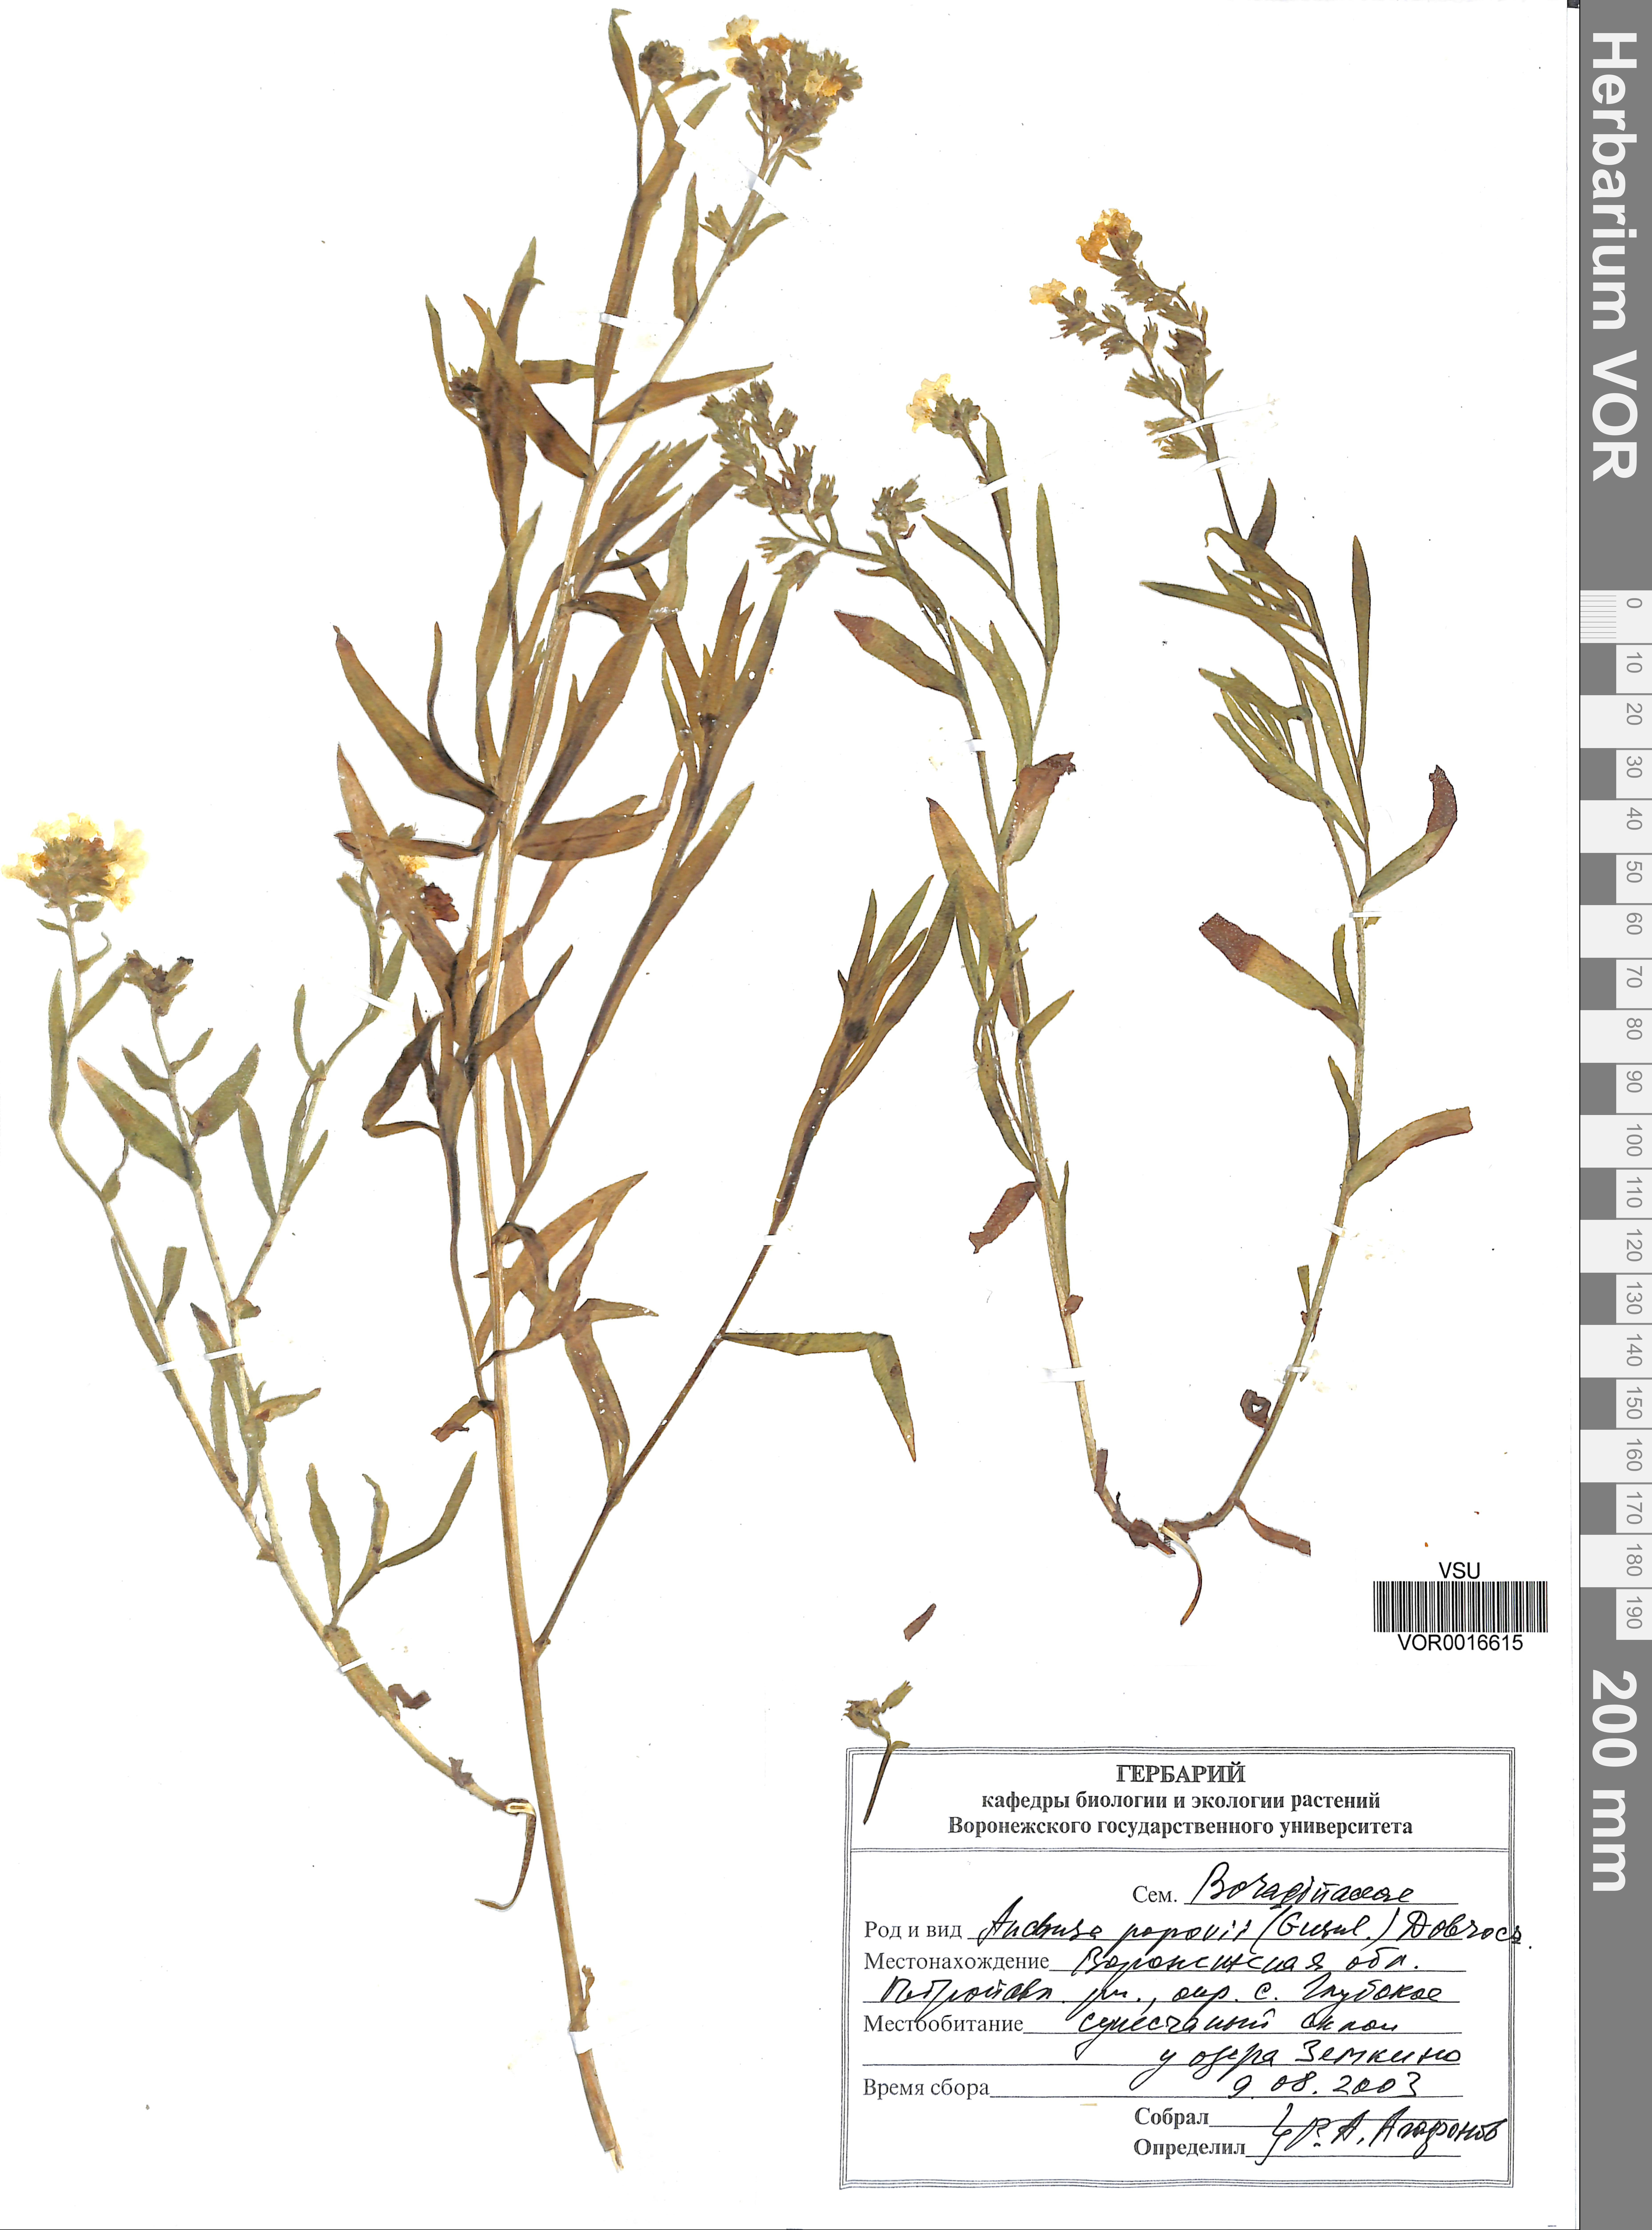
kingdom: Plantae
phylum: Tracheophyta
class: Magnoliopsida
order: Boraginales
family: Boraginaceae
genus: Anchusa
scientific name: Anchusa ochroleuca
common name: Yellow alkanet
